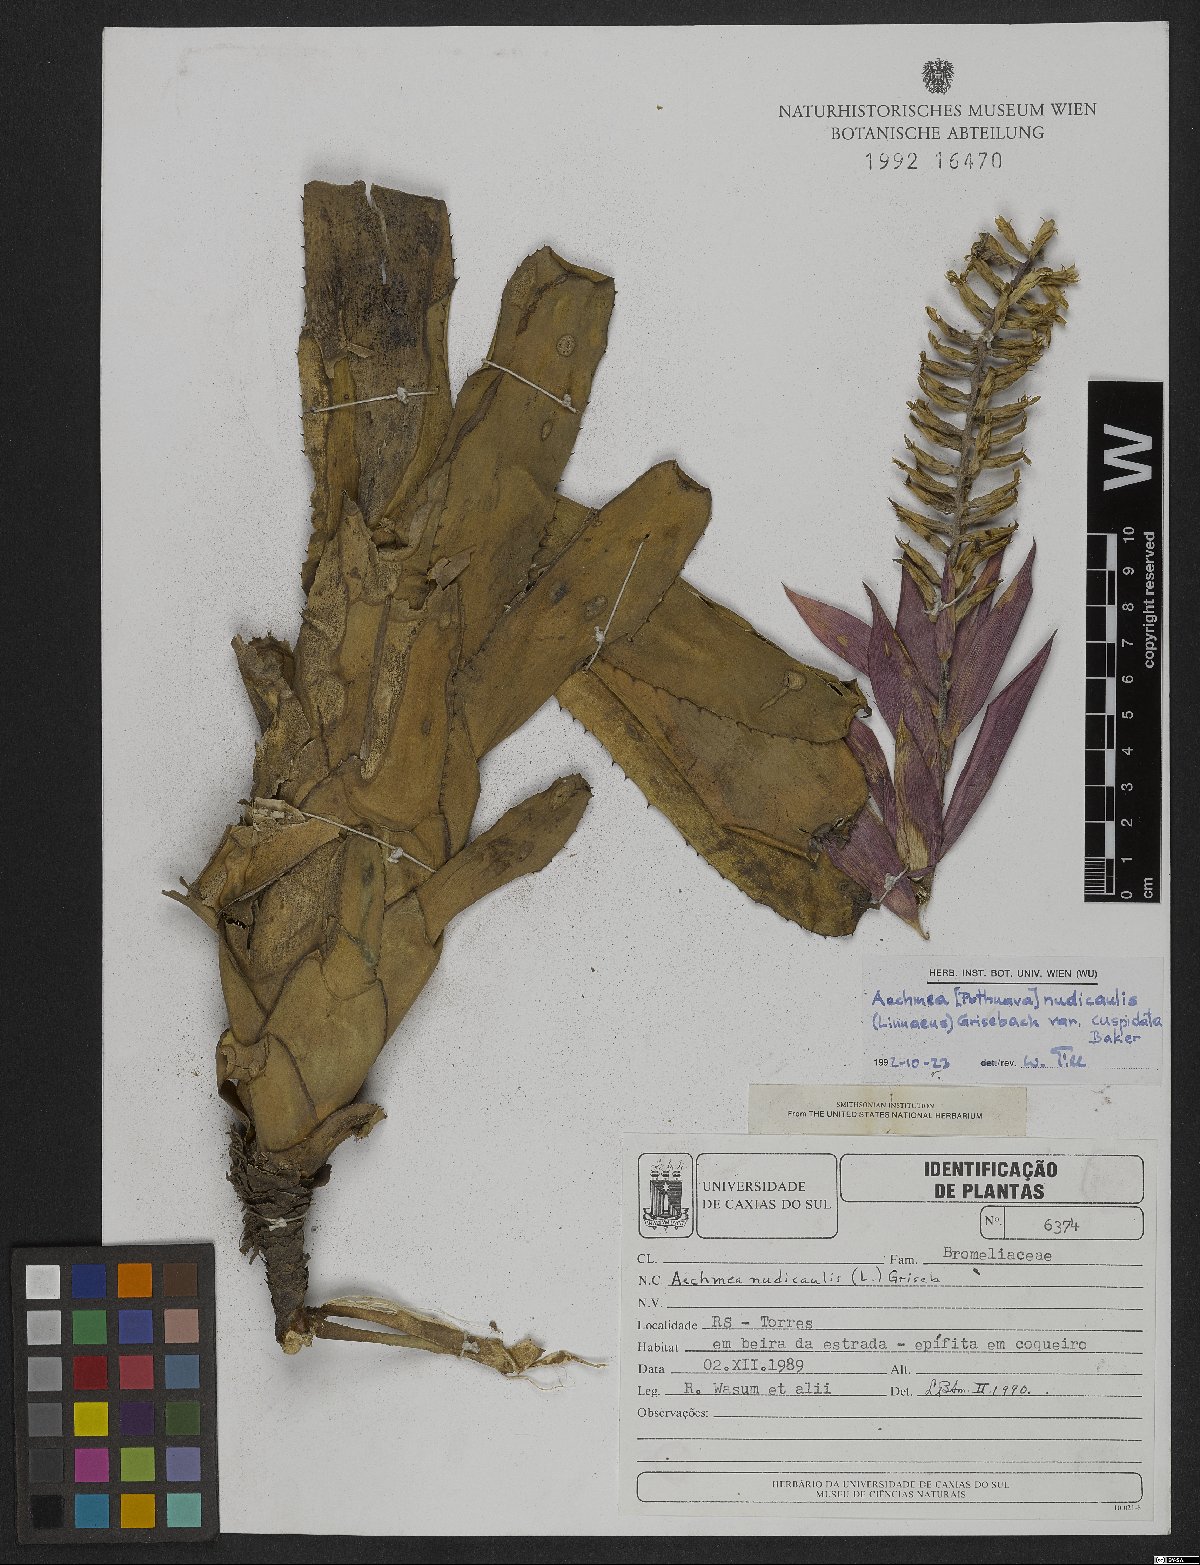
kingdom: Plantae
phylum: Tracheophyta
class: Liliopsida
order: Poales
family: Bromeliaceae
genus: Aechmea
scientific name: Aechmea nudicaulis
